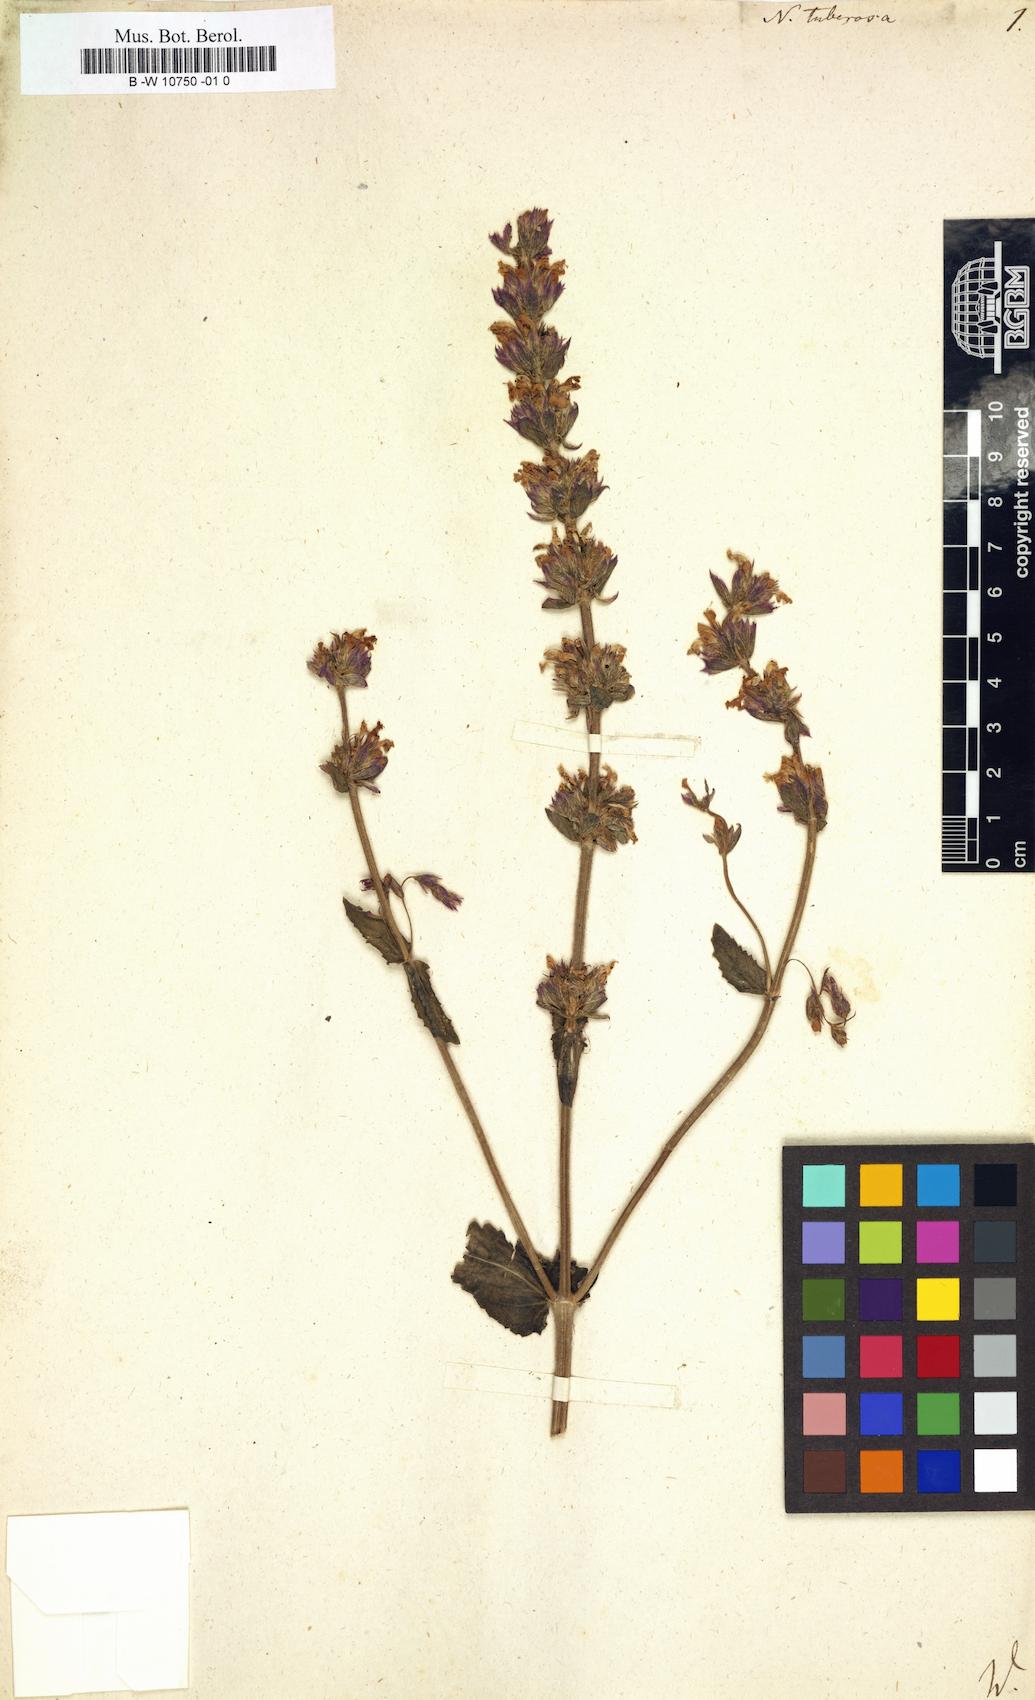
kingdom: Plantae
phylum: Tracheophyta
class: Magnoliopsida
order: Lamiales
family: Lamiaceae
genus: Nepeta
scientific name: Nepeta tuberosa
